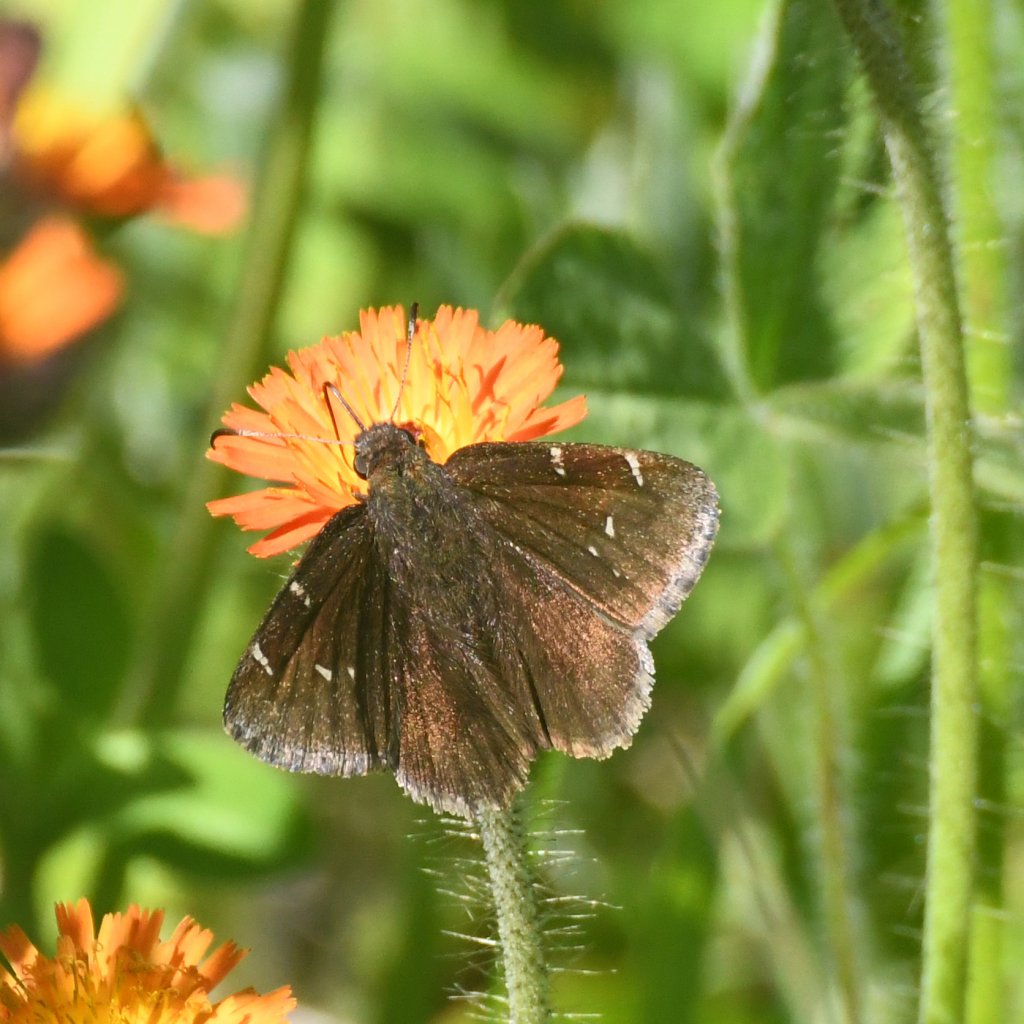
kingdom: Animalia
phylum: Arthropoda
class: Insecta
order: Lepidoptera
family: Hesperiidae
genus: Autochton
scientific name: Autochton
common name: Northern Cloudywing
